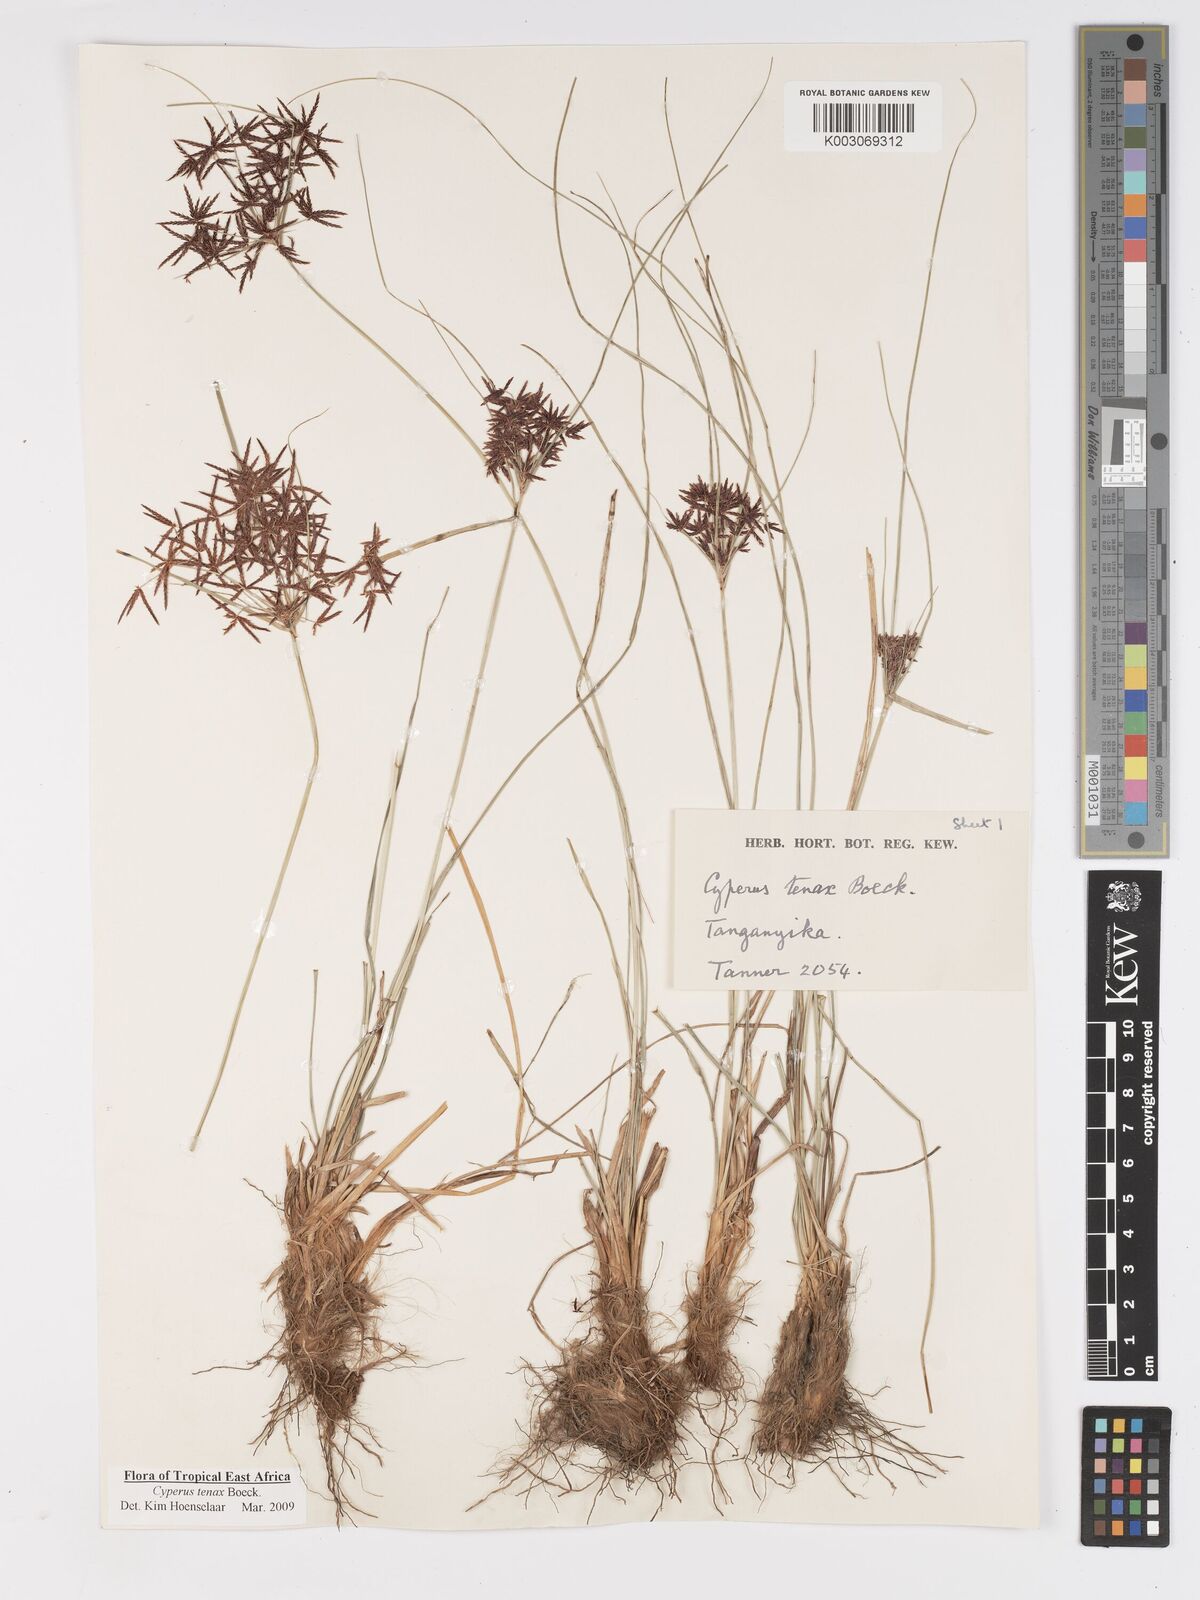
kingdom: Plantae
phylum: Tracheophyta
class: Liliopsida
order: Poales
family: Cyperaceae
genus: Cyperus
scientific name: Cyperus tenax
